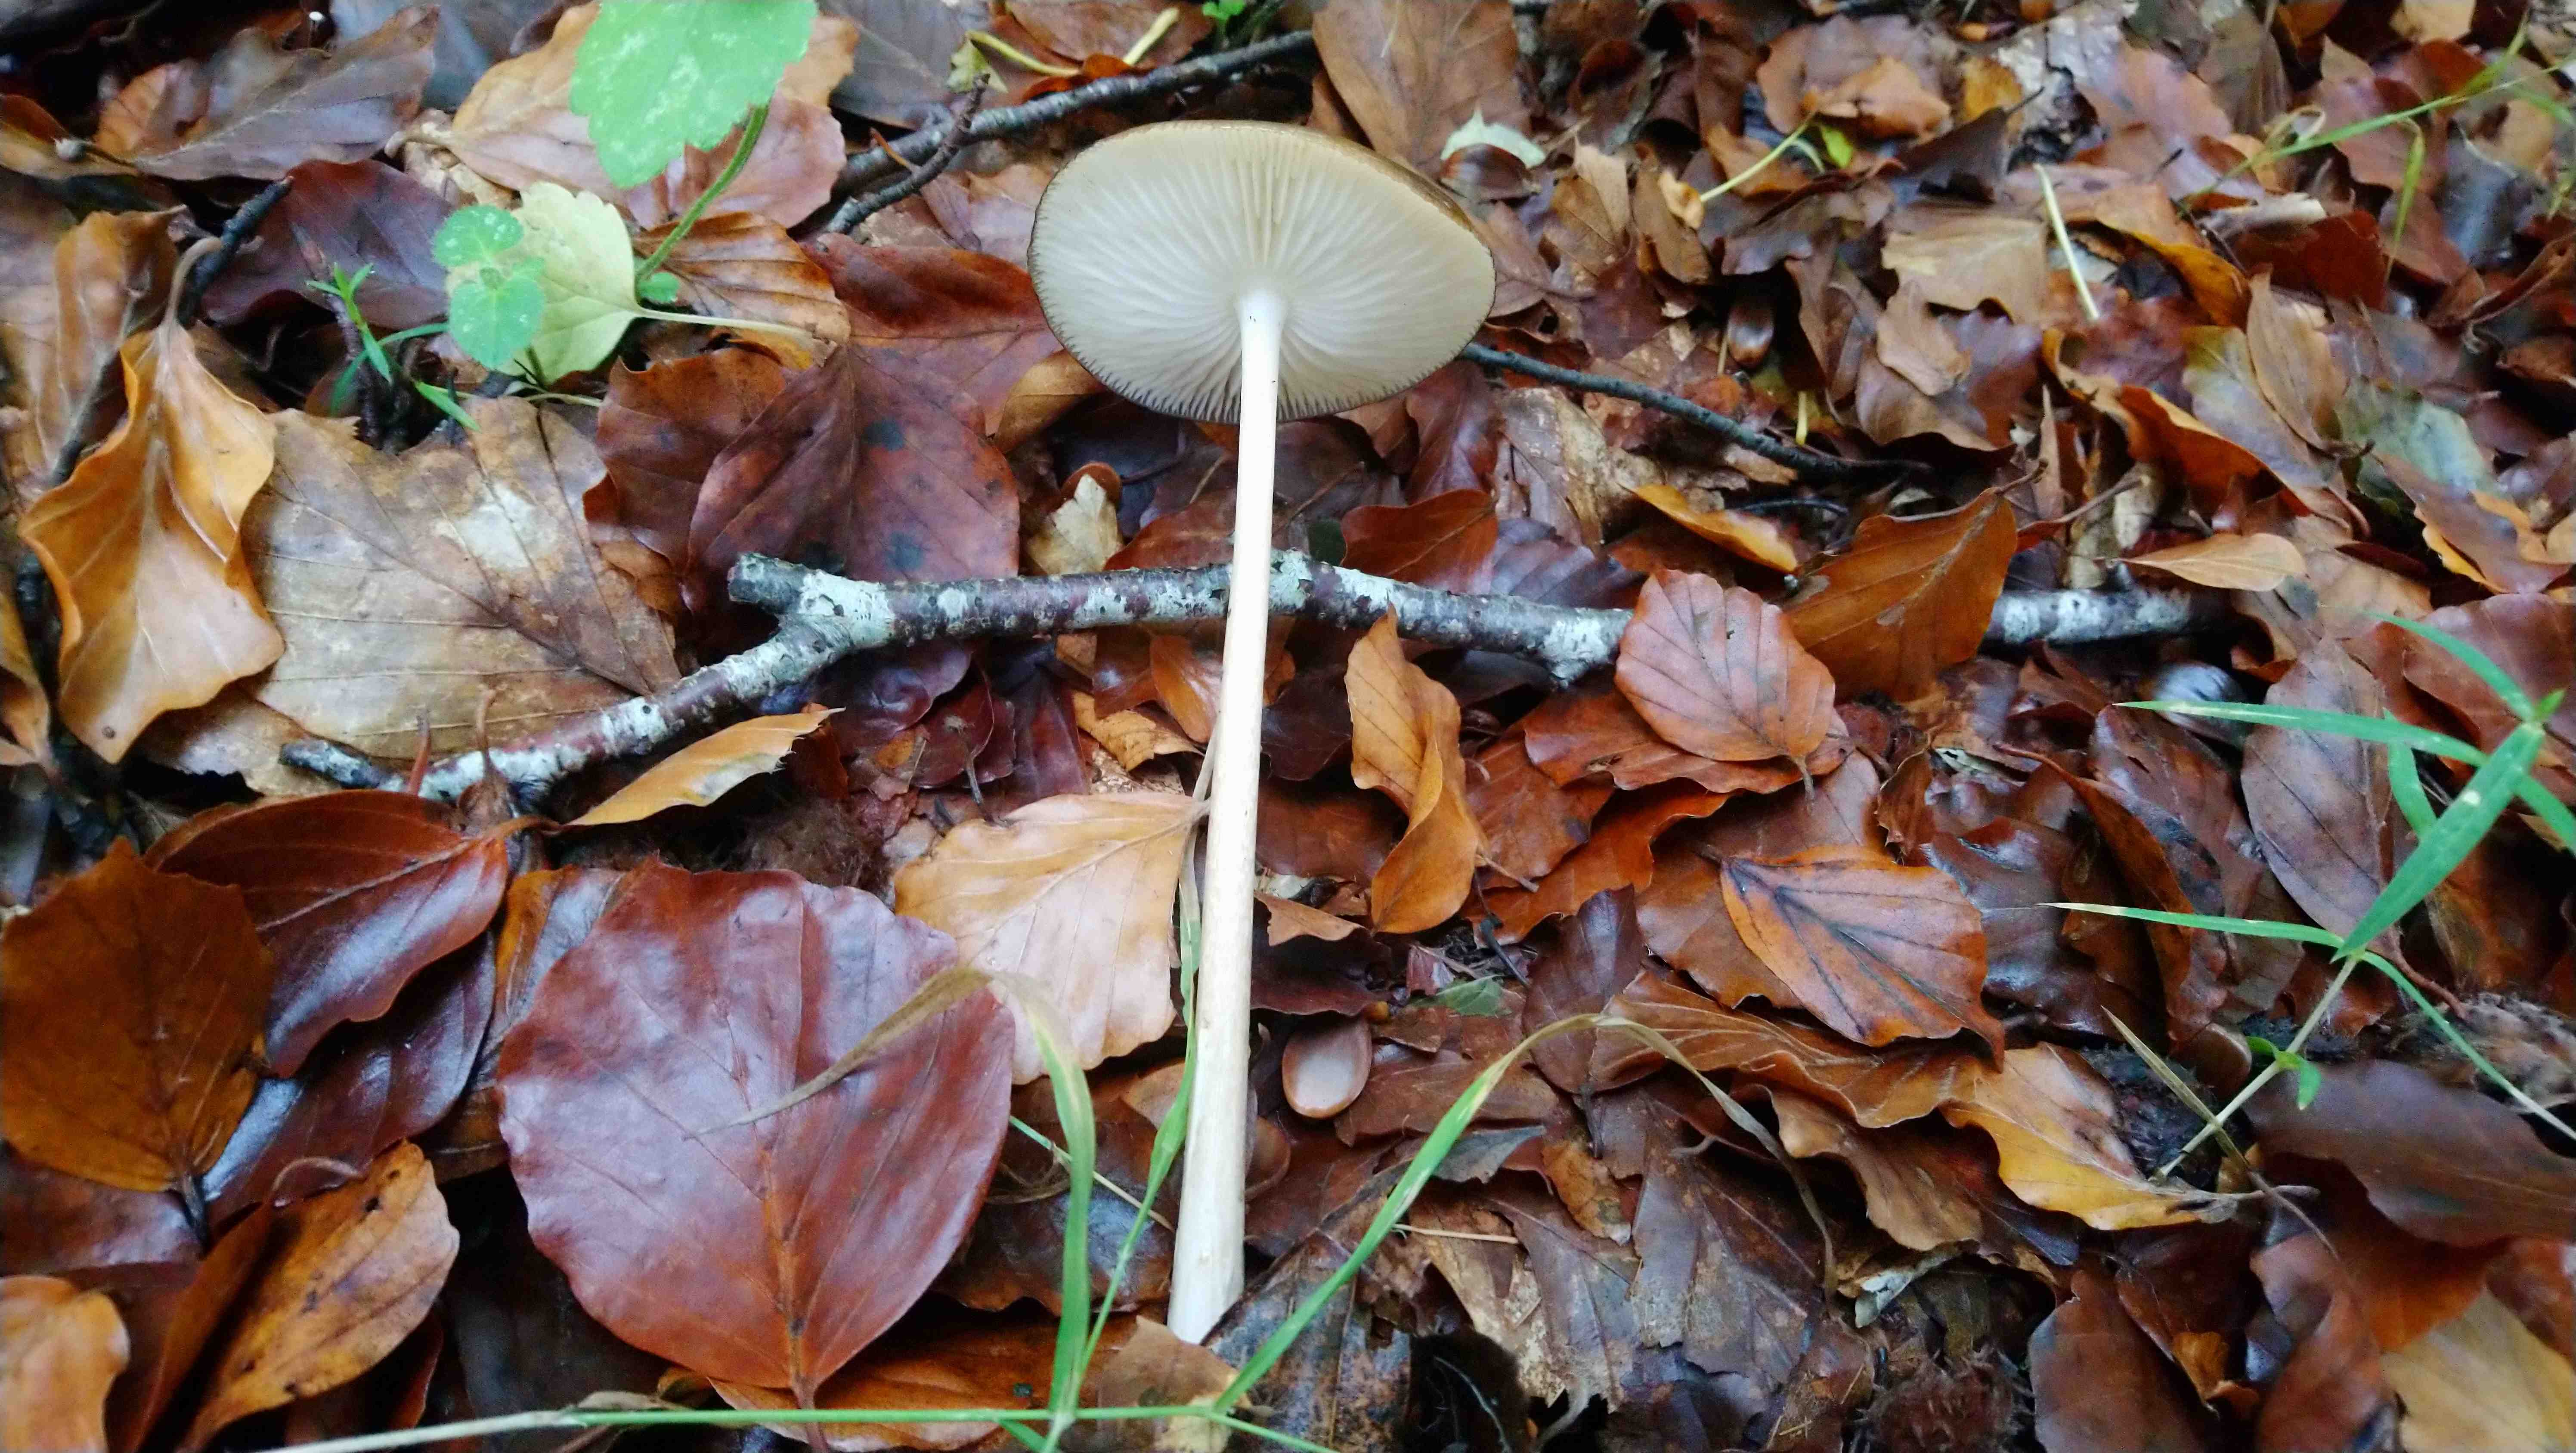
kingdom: Fungi
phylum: Basidiomycota
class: Agaricomycetes
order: Agaricales
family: Physalacriaceae
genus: Hymenopellis
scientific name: Hymenopellis radicata
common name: almindelig pælerodshat
